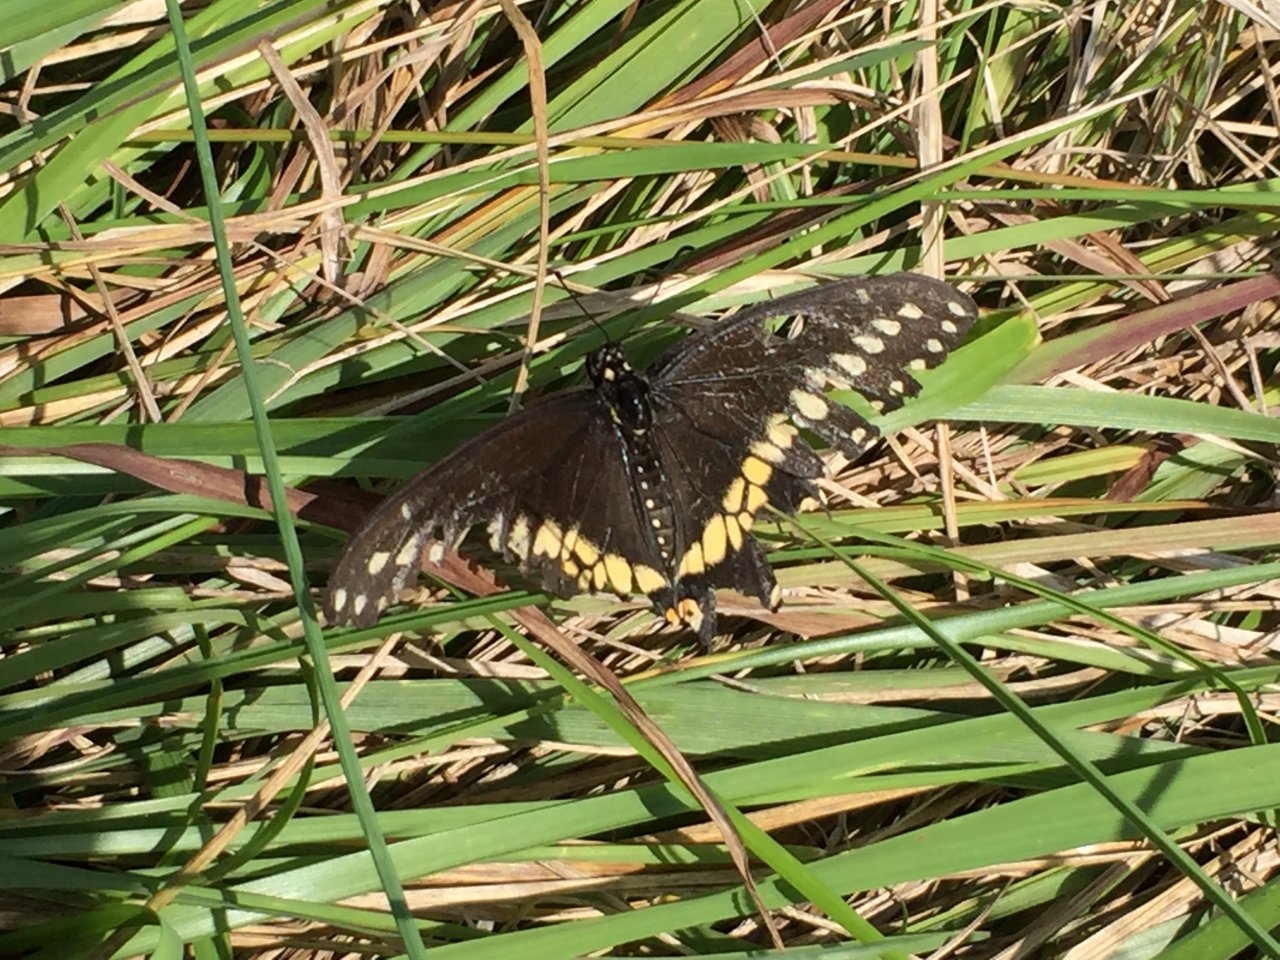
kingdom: Animalia
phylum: Arthropoda
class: Insecta
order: Lepidoptera
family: Papilionidae
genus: Papilio
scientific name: Papilio polyxenes
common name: Black Swallowtail
